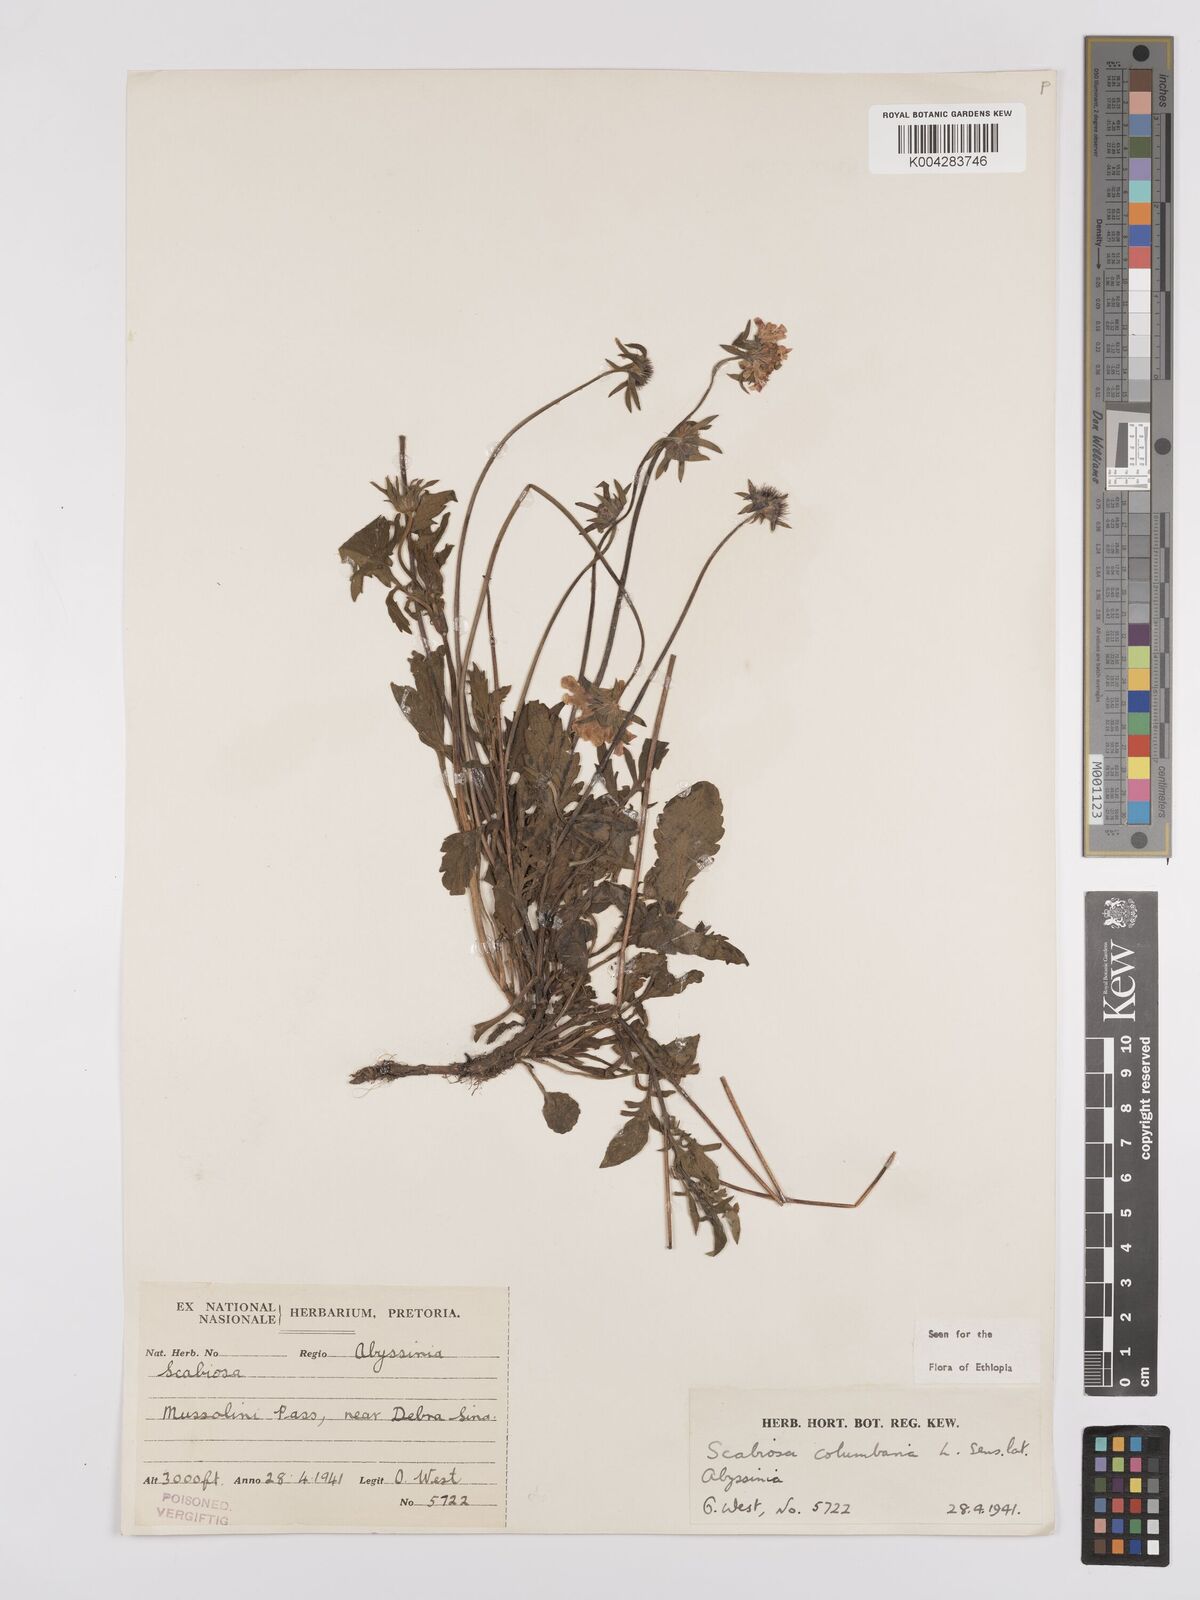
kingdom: Plantae
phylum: Tracheophyta
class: Magnoliopsida
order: Dipsacales
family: Caprifoliaceae
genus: Scabiosa
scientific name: Scabiosa columbaria
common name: Small scabious
